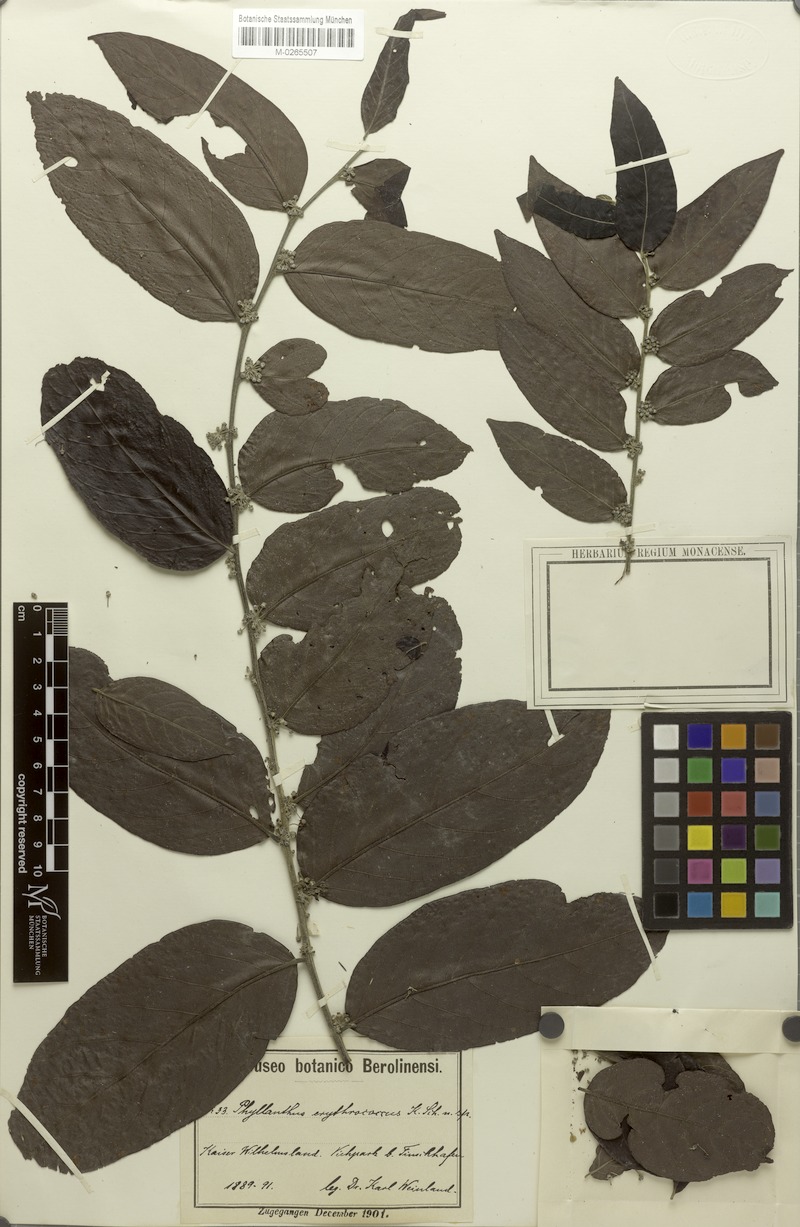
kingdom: Plantae
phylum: Tracheophyta
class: Magnoliopsida
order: Malpighiales
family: Phyllanthaceae
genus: Glochidion
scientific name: Glochidion philippicum
